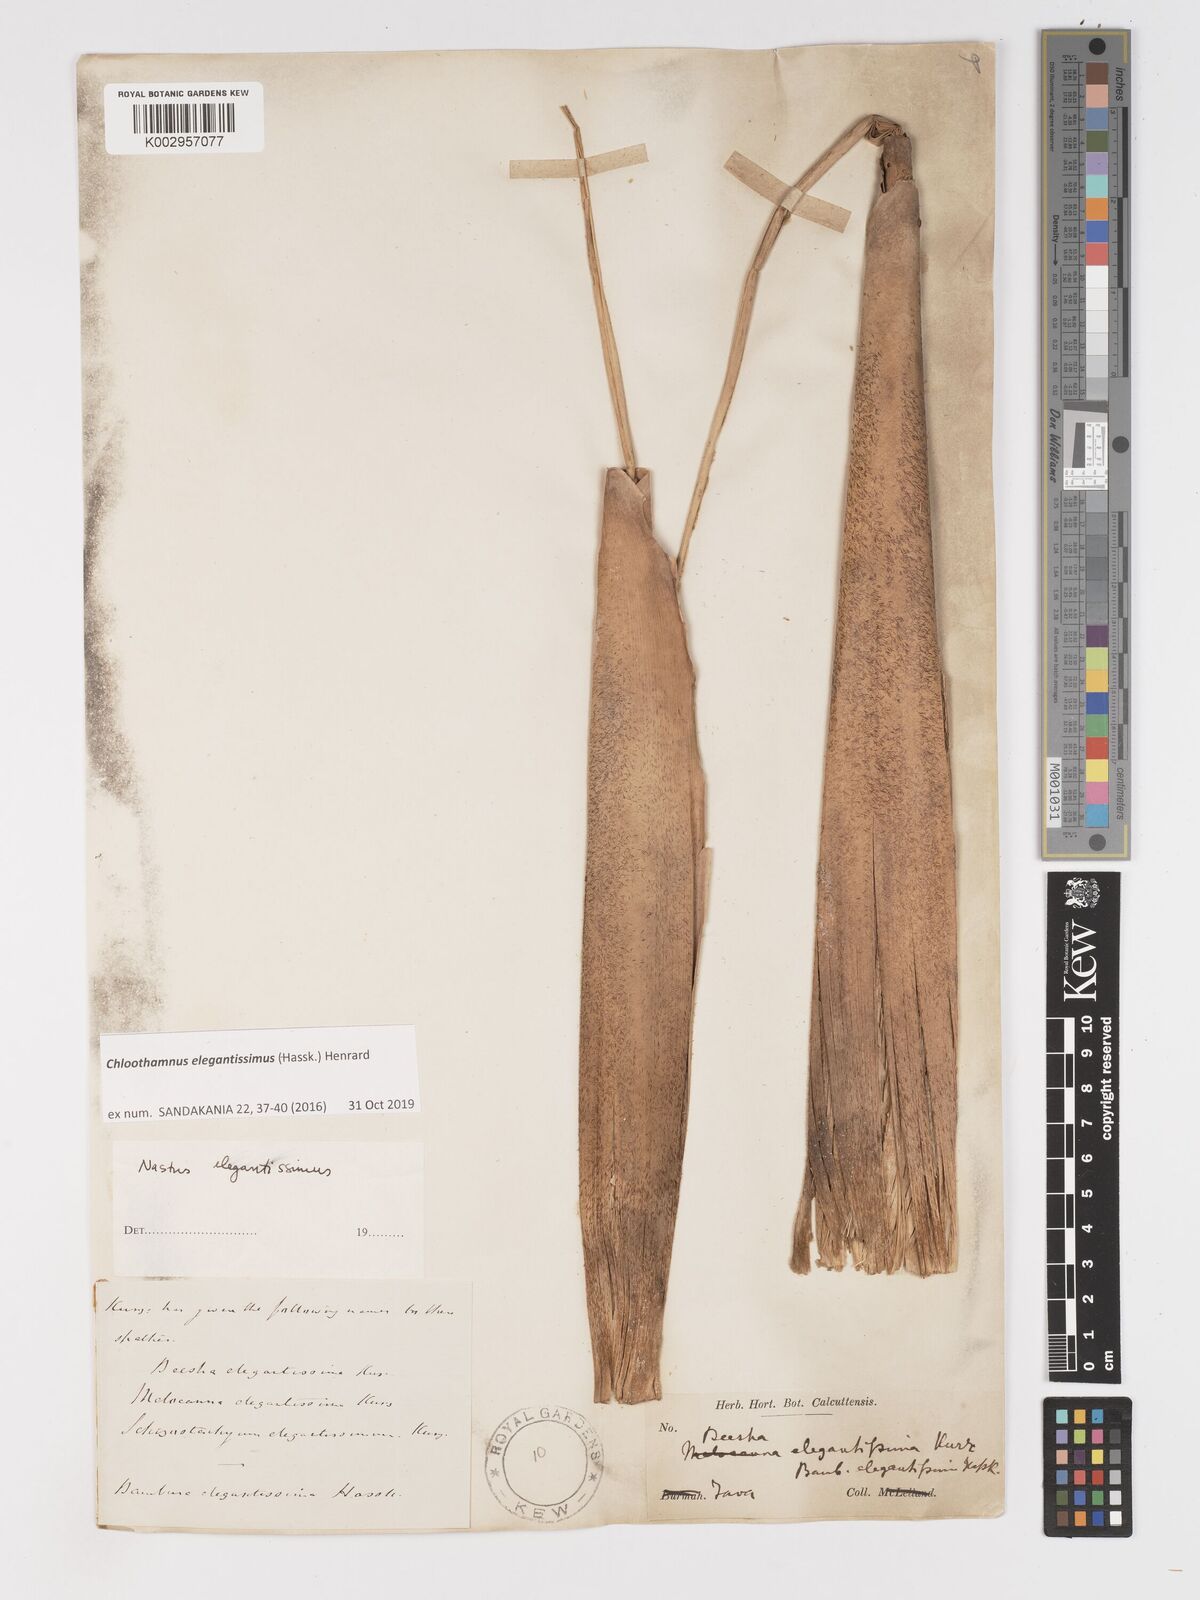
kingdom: Plantae
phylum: Tracheophyta
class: Liliopsida
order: Poales
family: Poaceae
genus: Chloothamnus
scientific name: Chloothamnus
